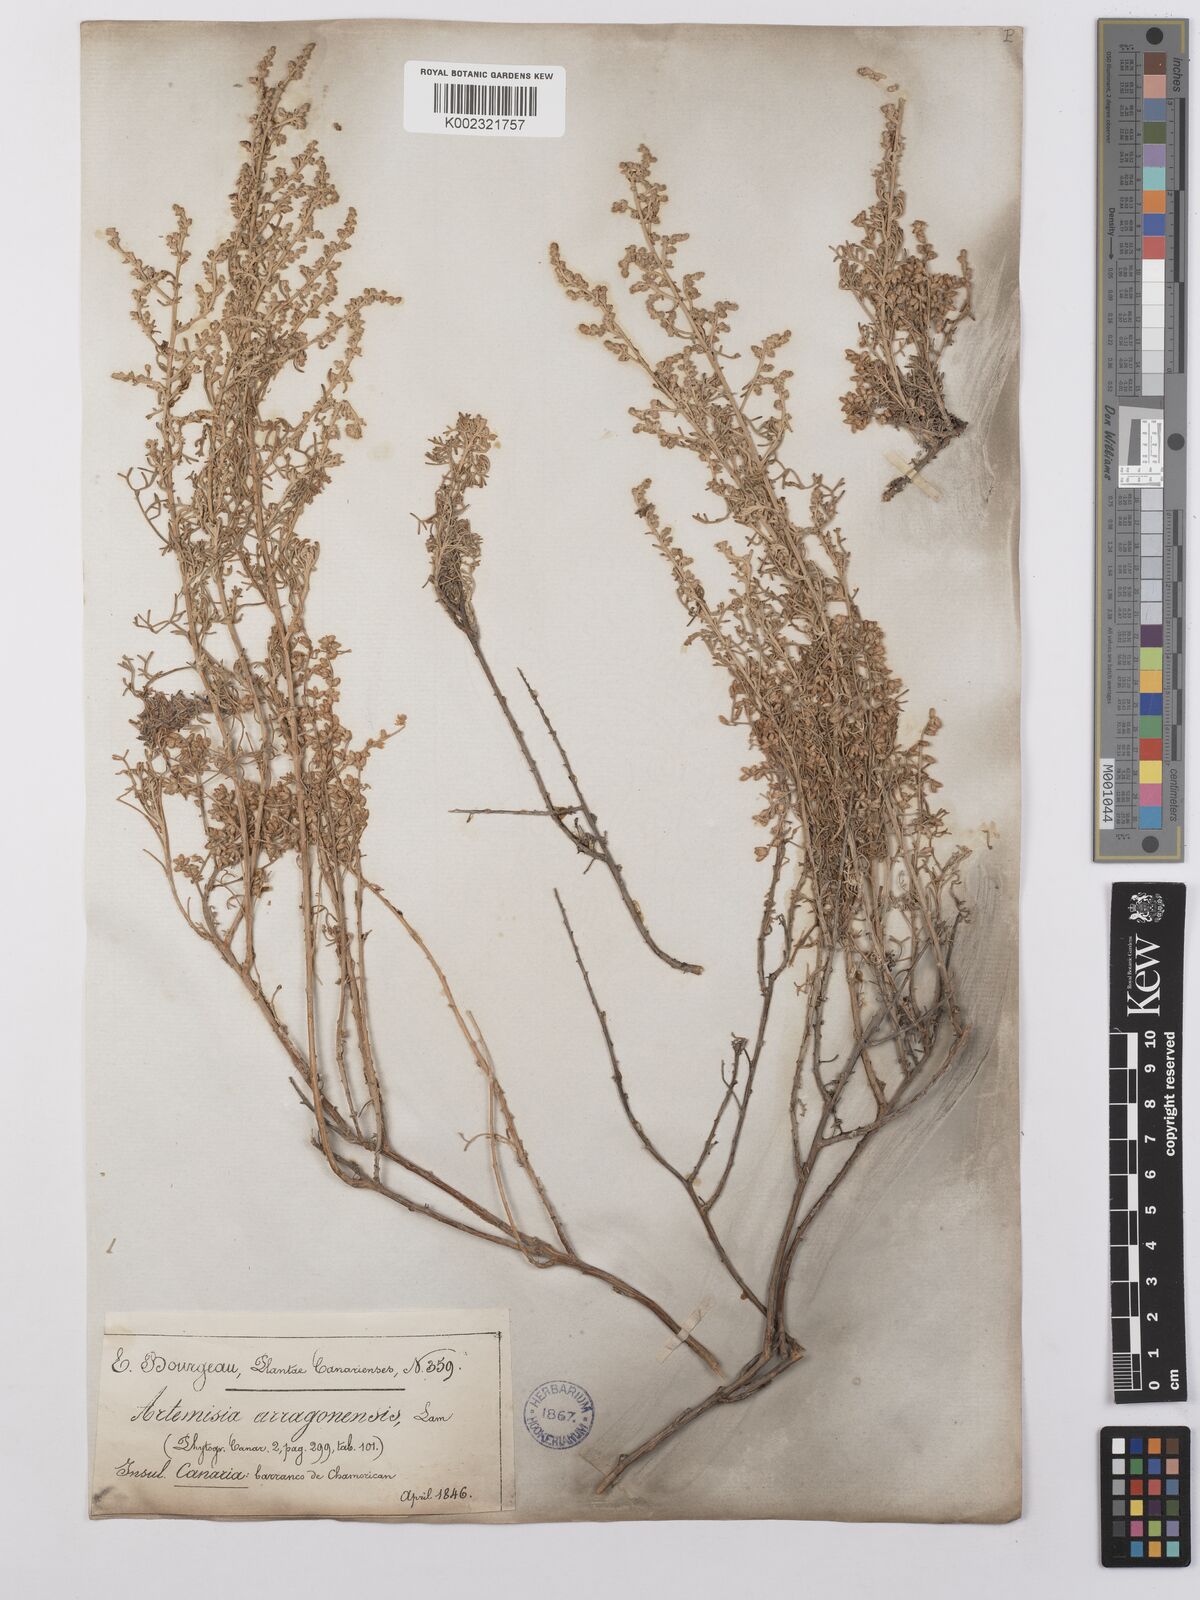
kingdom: Plantae
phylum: Tracheophyta
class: Magnoliopsida
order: Asterales
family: Asteraceae
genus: Artemisia
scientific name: Artemisia herba-alba
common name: White wormwood
